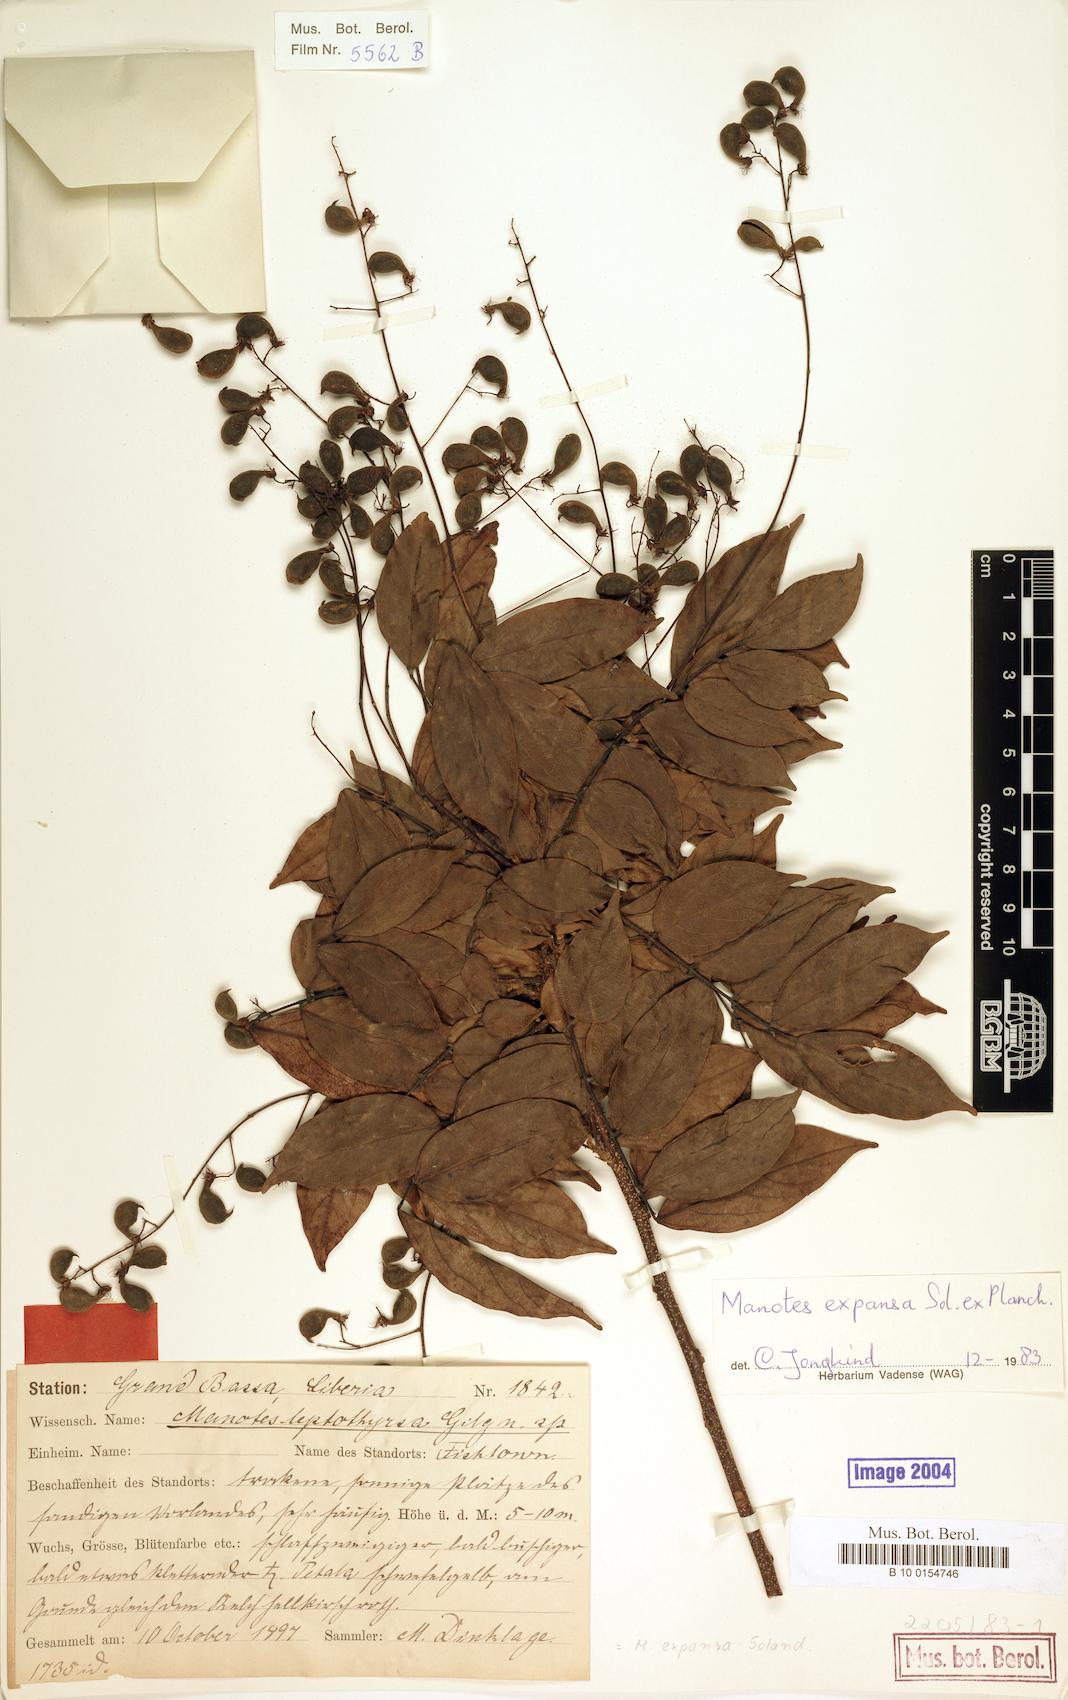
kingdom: Plantae
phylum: Tracheophyta
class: Magnoliopsida
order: Oxalidales
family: Connaraceae
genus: Manotes
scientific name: Manotes expansa
